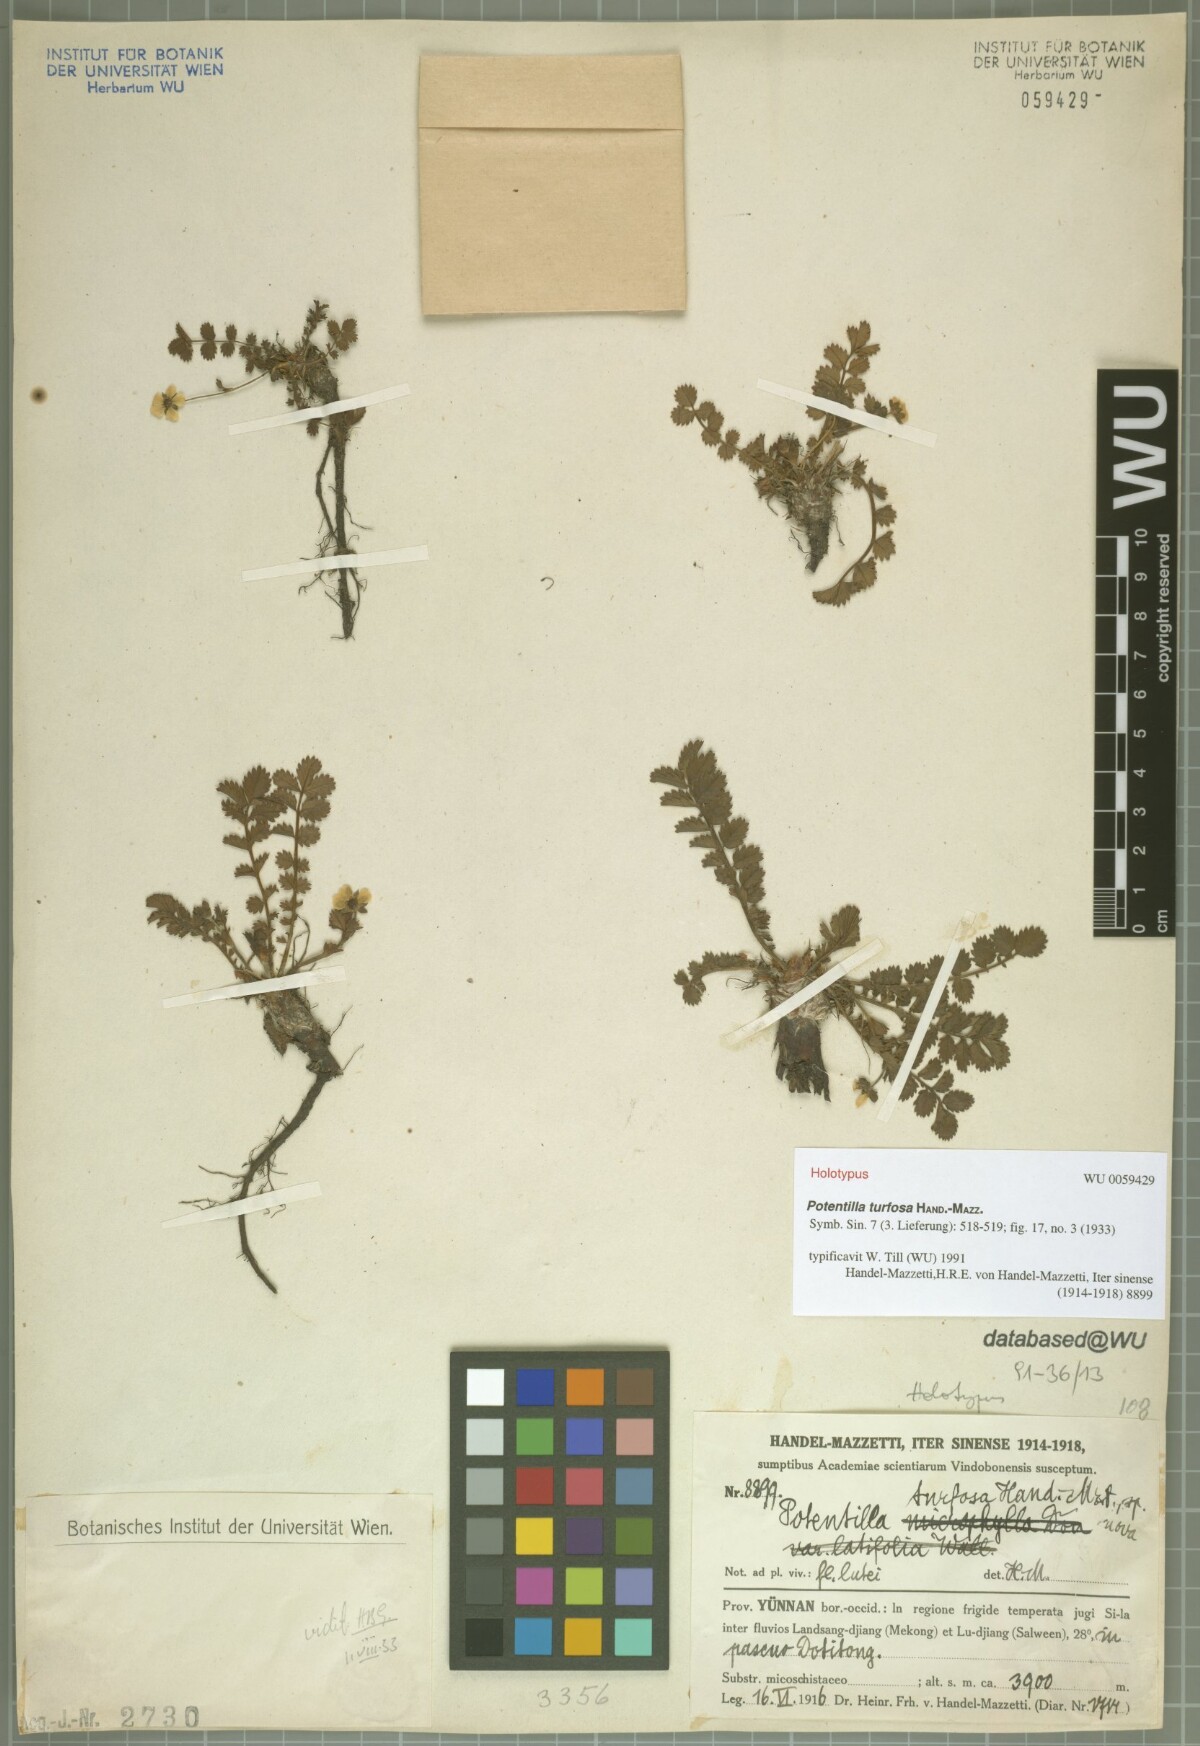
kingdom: Plantae
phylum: Tracheophyta
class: Magnoliopsida
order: Rosales
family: Rosaceae
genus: Argentina
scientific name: Argentina turfosa
